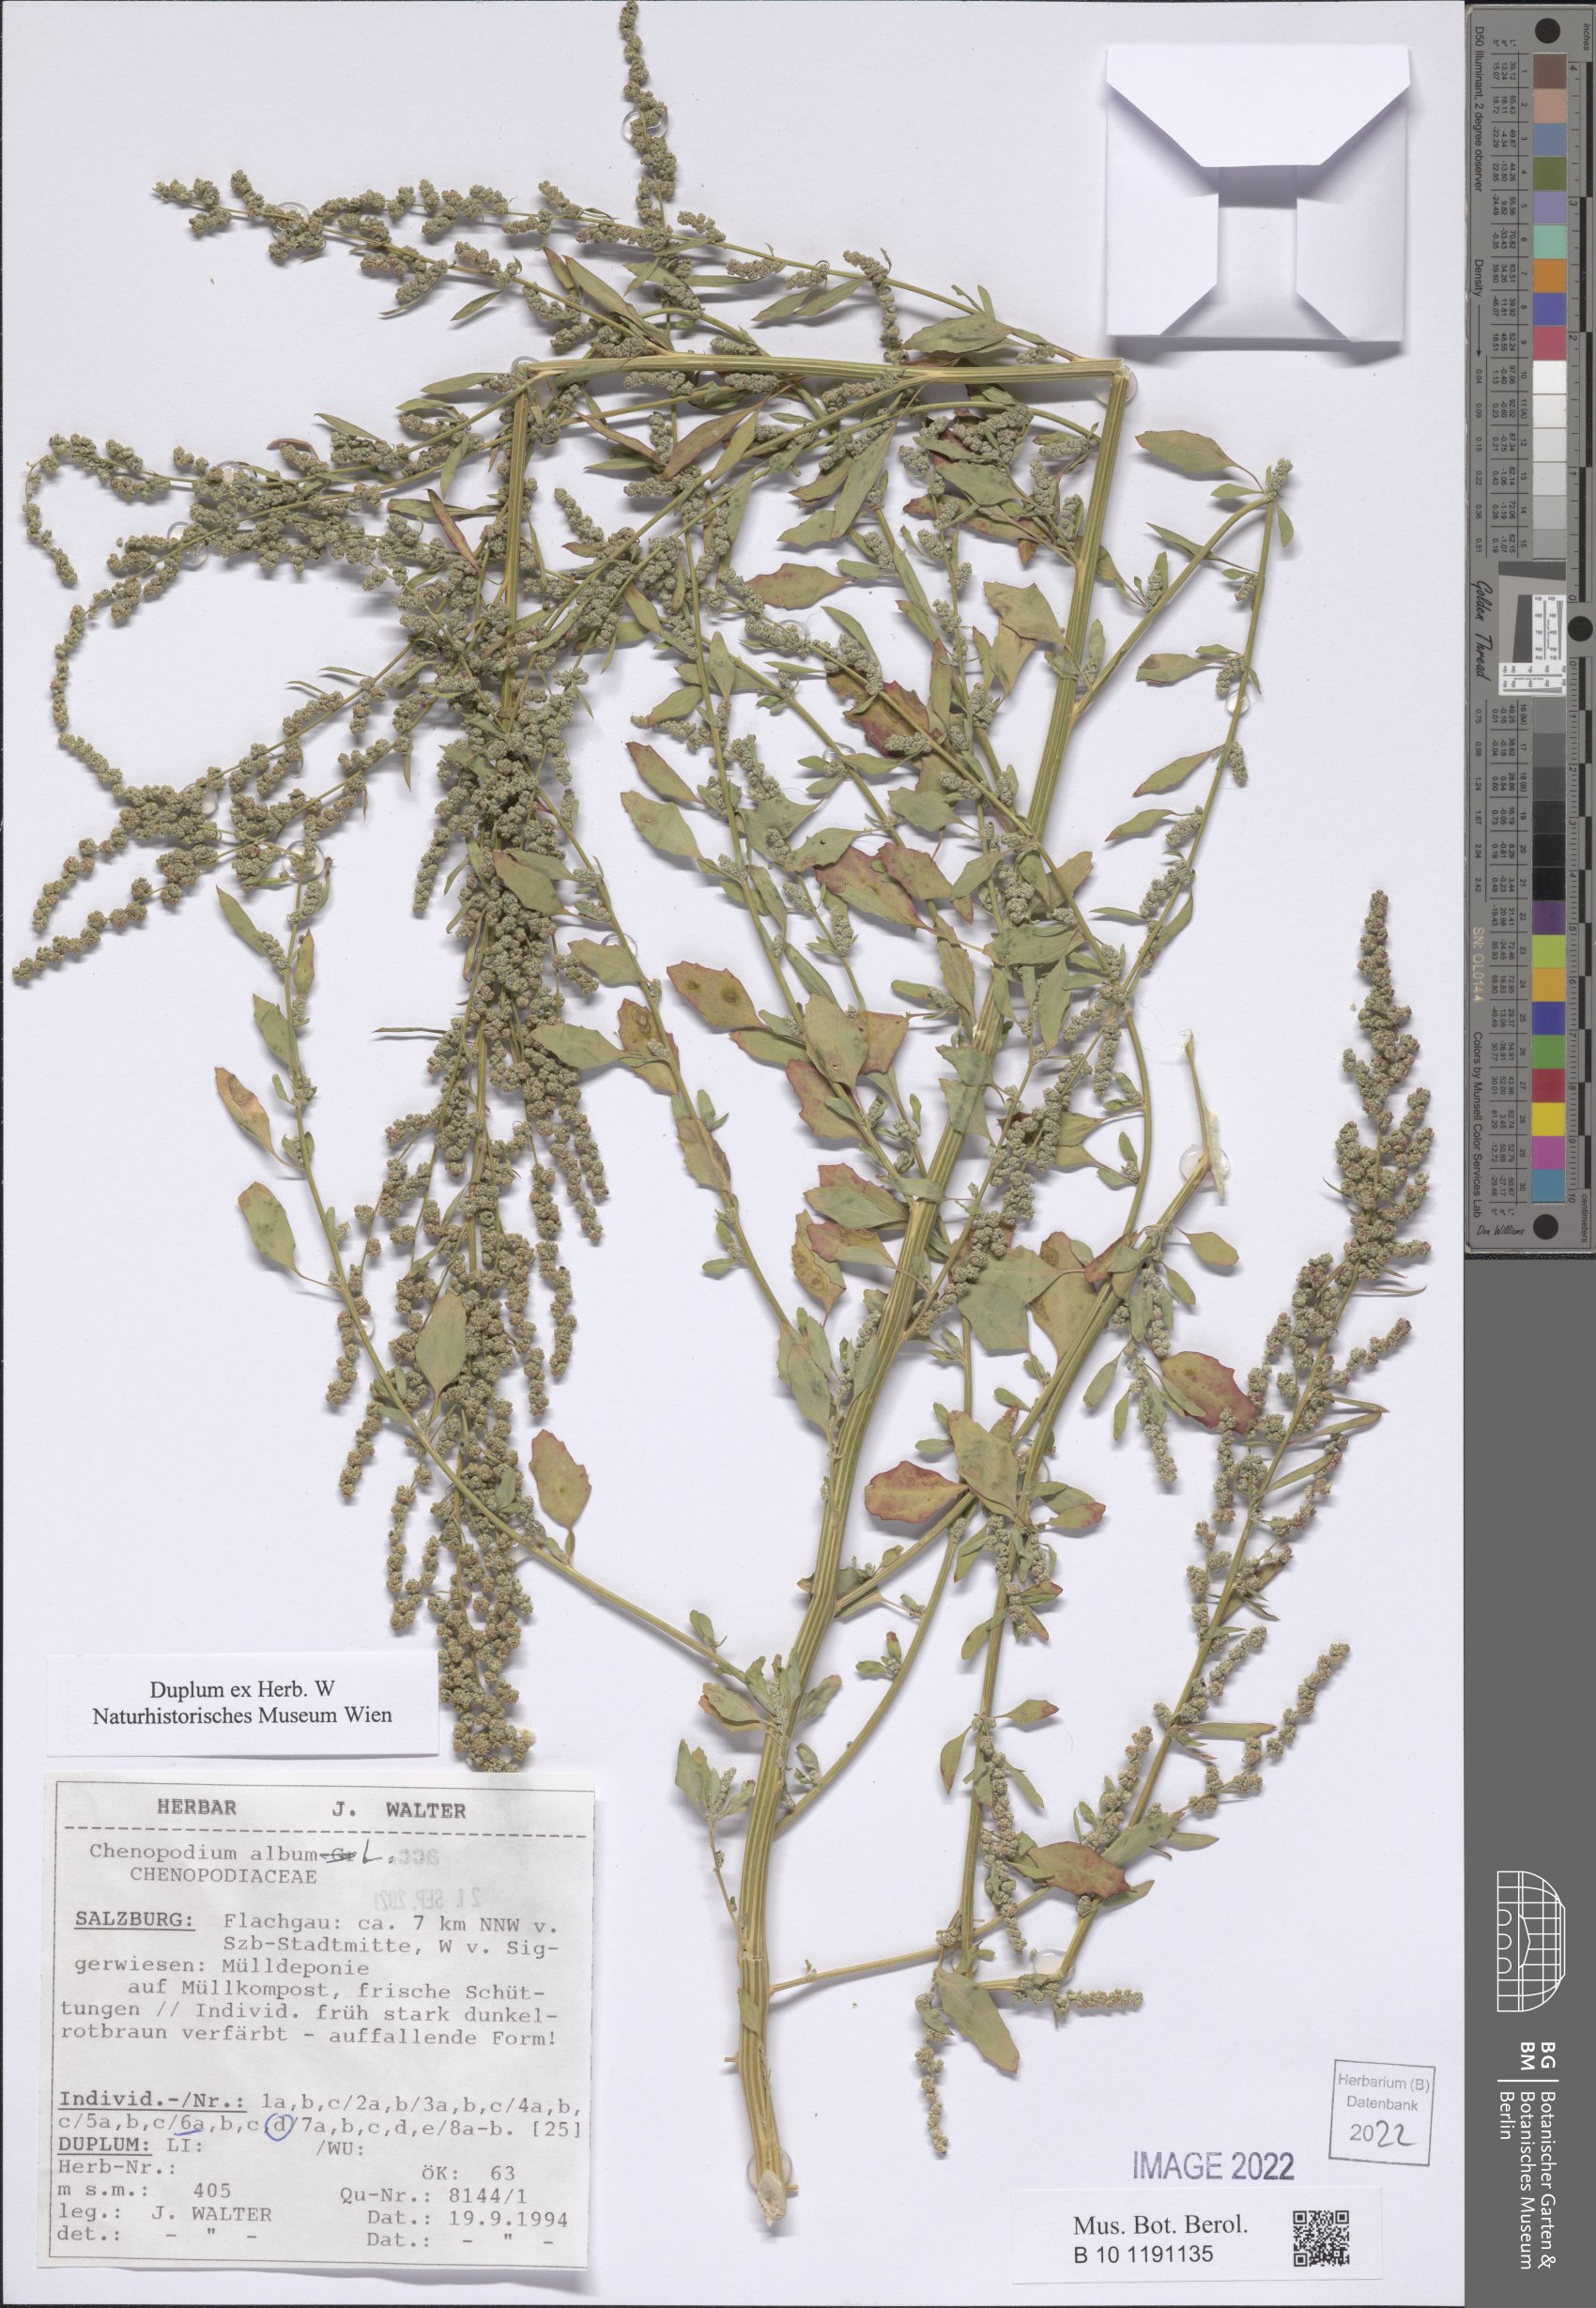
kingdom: Plantae
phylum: Tracheophyta
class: Magnoliopsida
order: Caryophyllales
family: Amaranthaceae
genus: Chenopodium
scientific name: Chenopodium album
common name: Fat-hen
